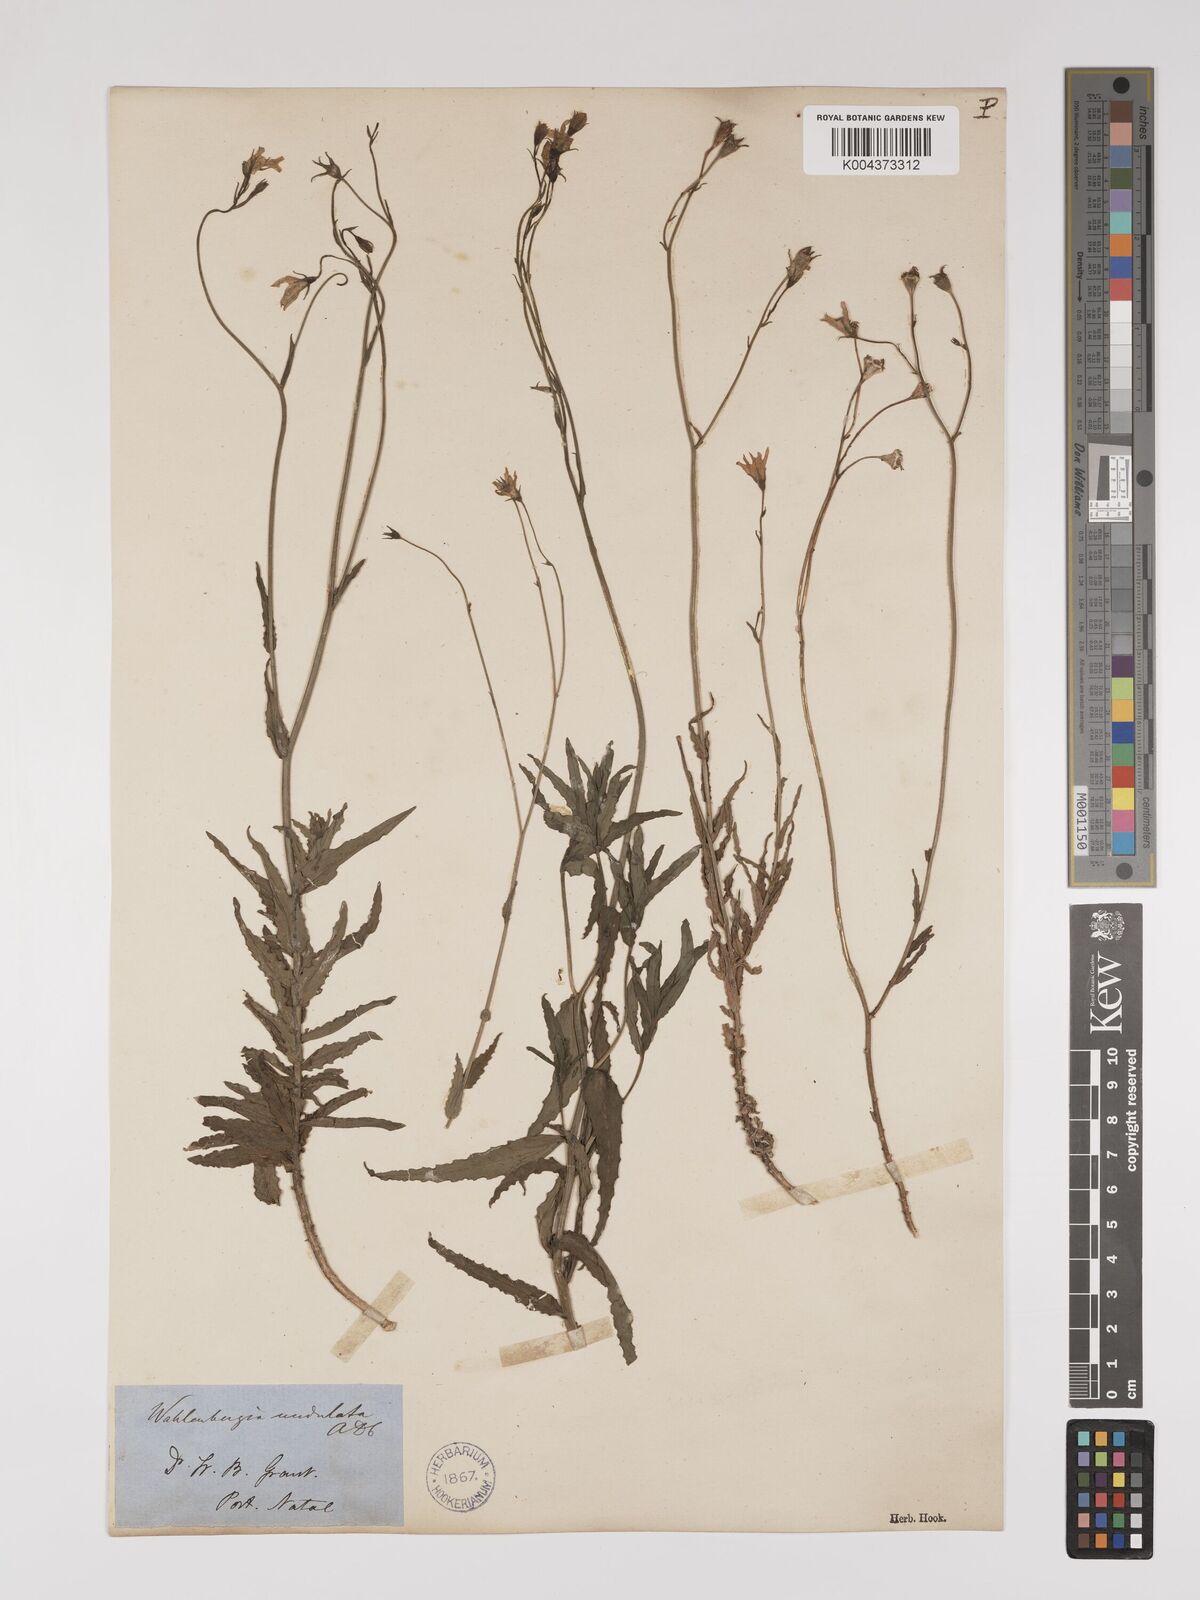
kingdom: Plantae
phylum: Tracheophyta
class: Magnoliopsida
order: Asterales
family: Campanulaceae
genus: Wahlenbergia
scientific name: Wahlenbergia undulata
